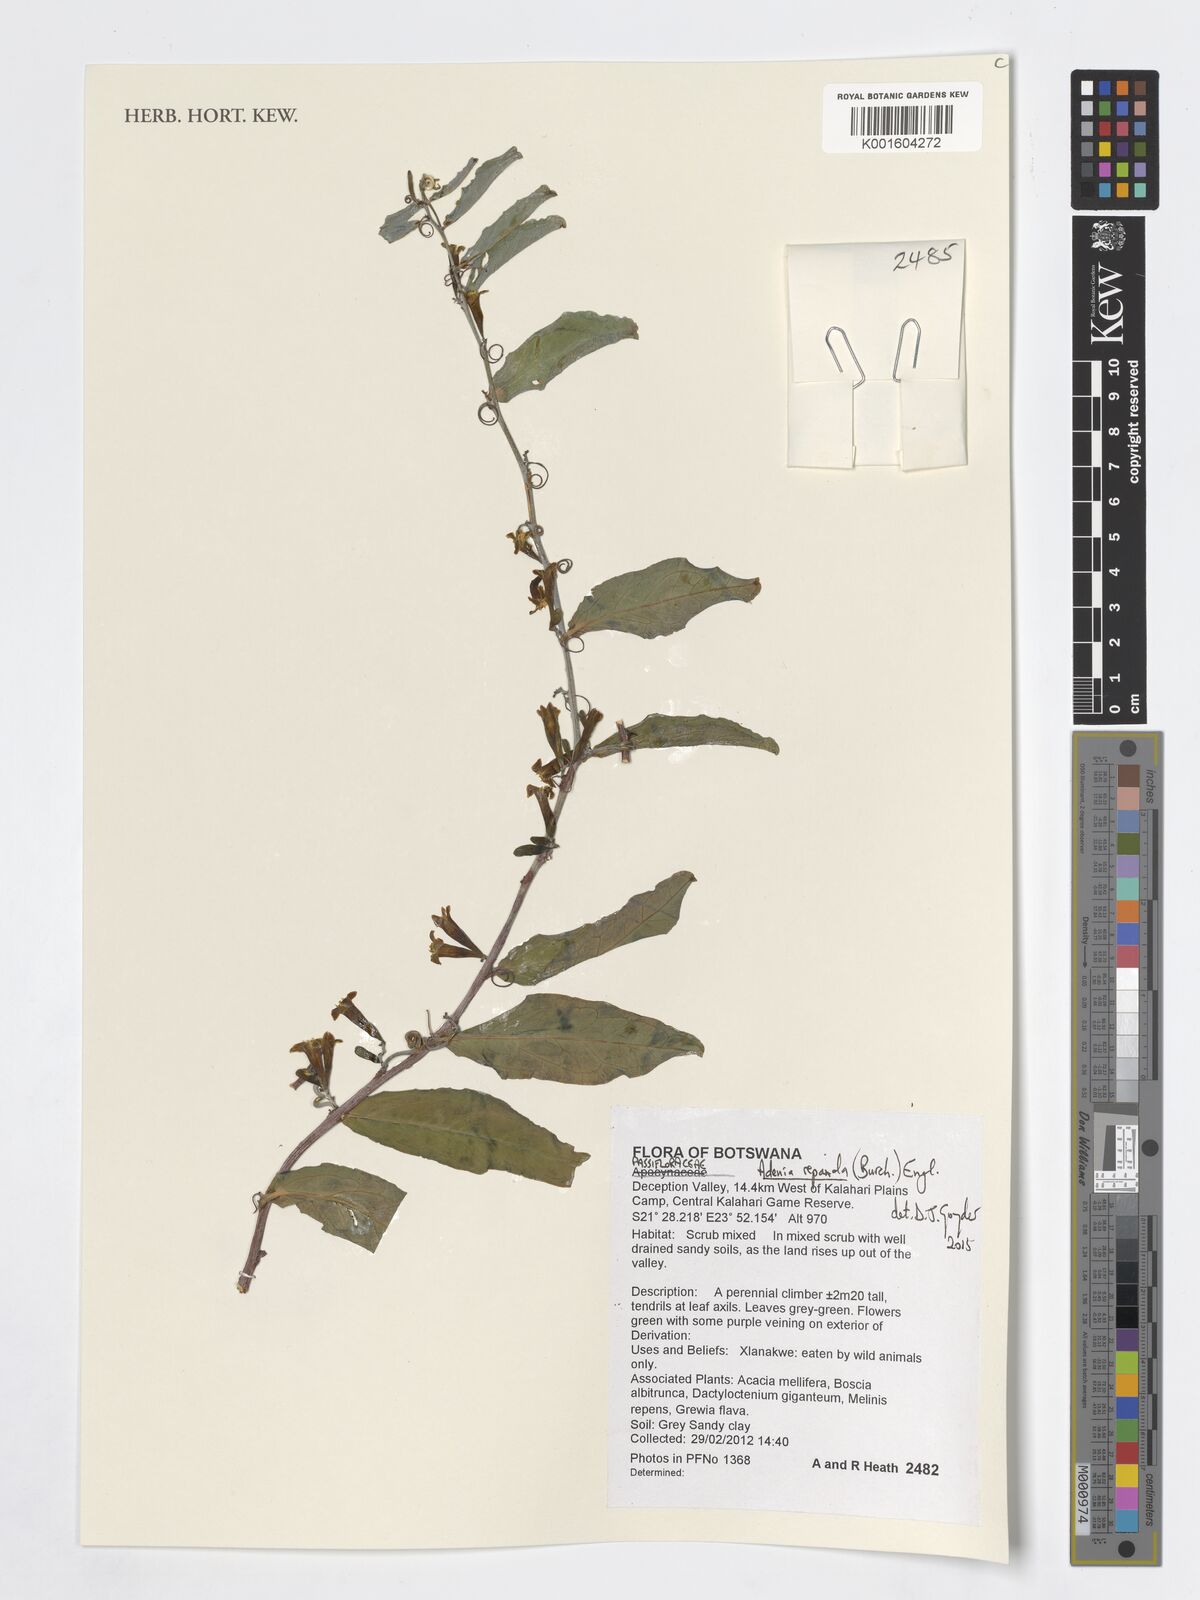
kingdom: Plantae
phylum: Tracheophyta
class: Magnoliopsida
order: Malpighiales
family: Passifloraceae
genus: Adenia
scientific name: Adenia repanda
